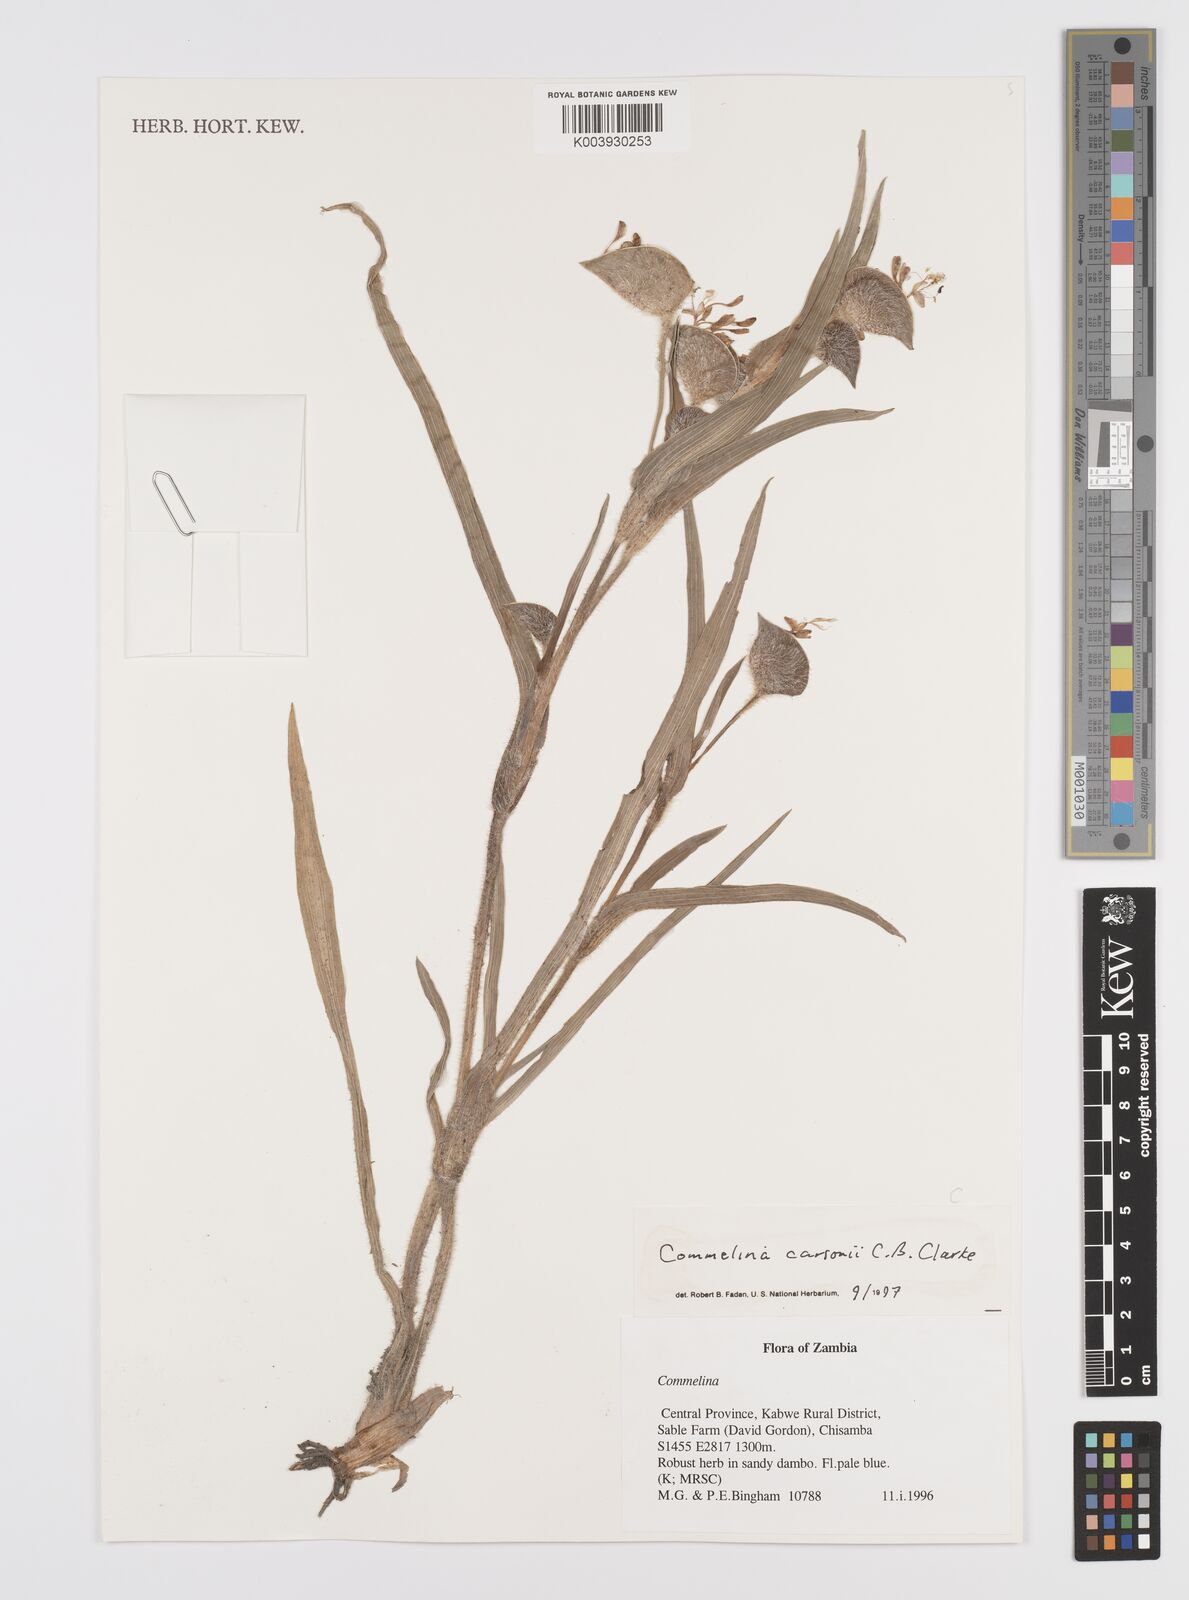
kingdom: Plantae
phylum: Tracheophyta
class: Liliopsida
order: Commelinales
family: Commelinaceae
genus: Commelina
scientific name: Commelina schweinfurthii
